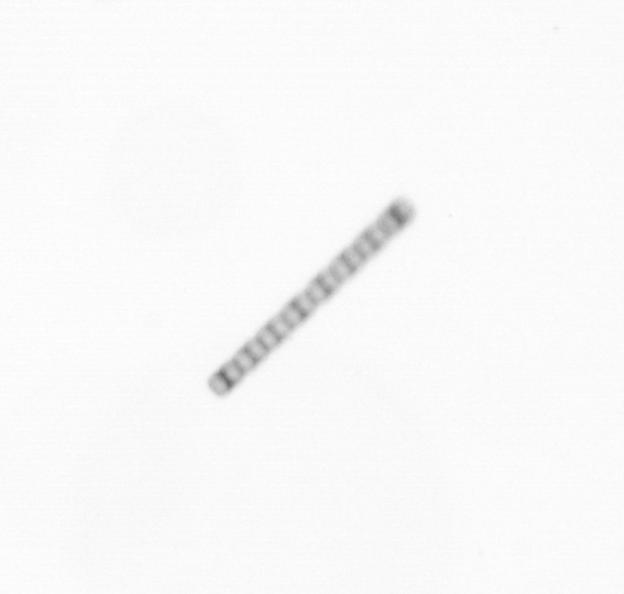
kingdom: Chromista
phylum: Ochrophyta
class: Bacillariophyceae
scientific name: Bacillariophyceae
